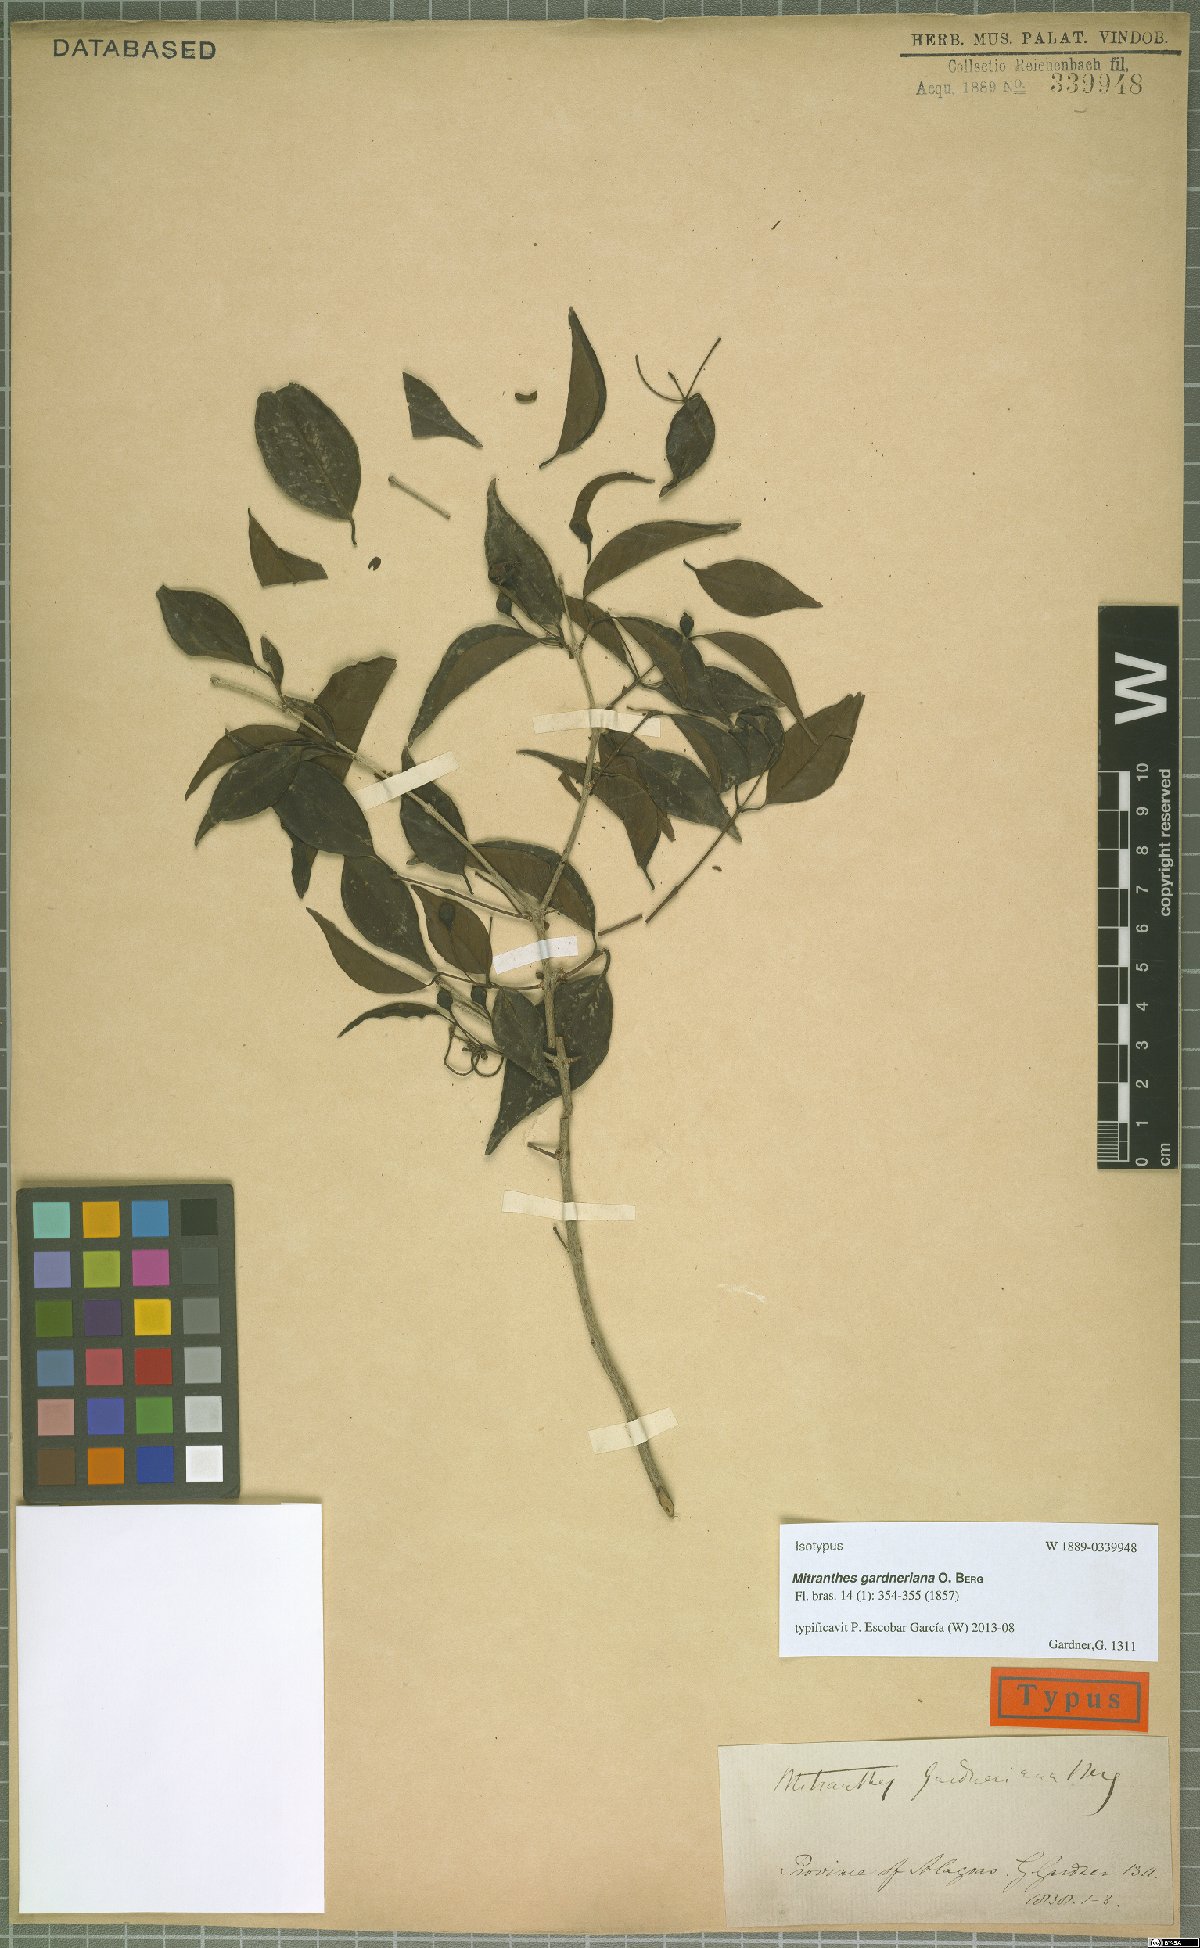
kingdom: Plantae
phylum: Tracheophyta
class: Magnoliopsida
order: Myrtales
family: Myrtaceae
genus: Psidium
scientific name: Psidium oligospermum
